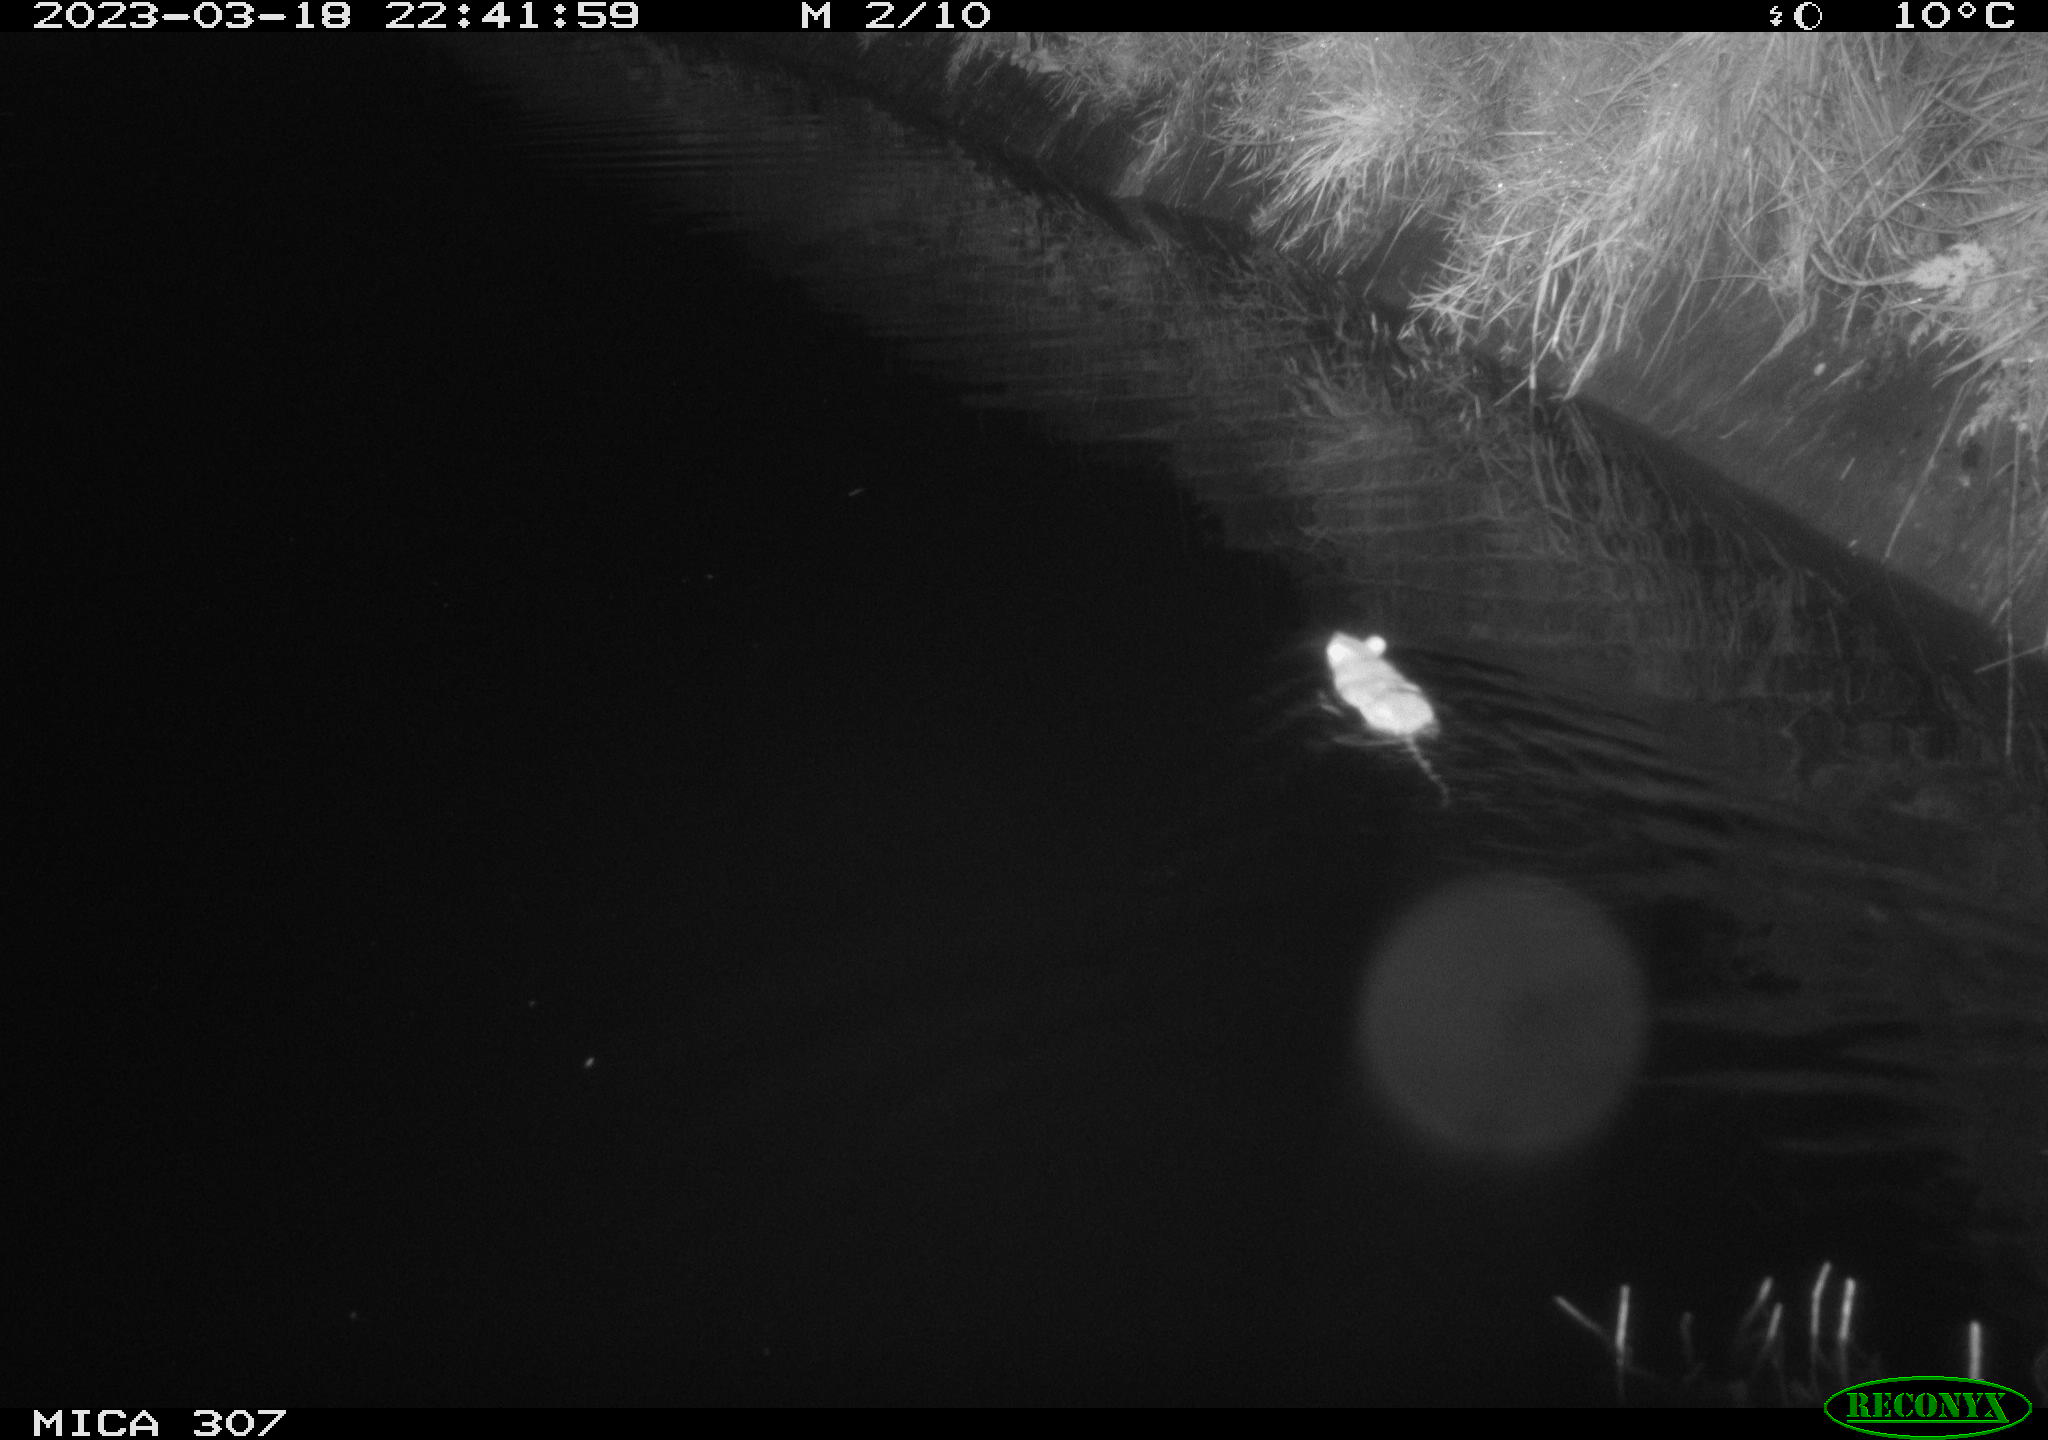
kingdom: Animalia
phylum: Chordata
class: Mammalia
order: Rodentia
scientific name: Rodentia
